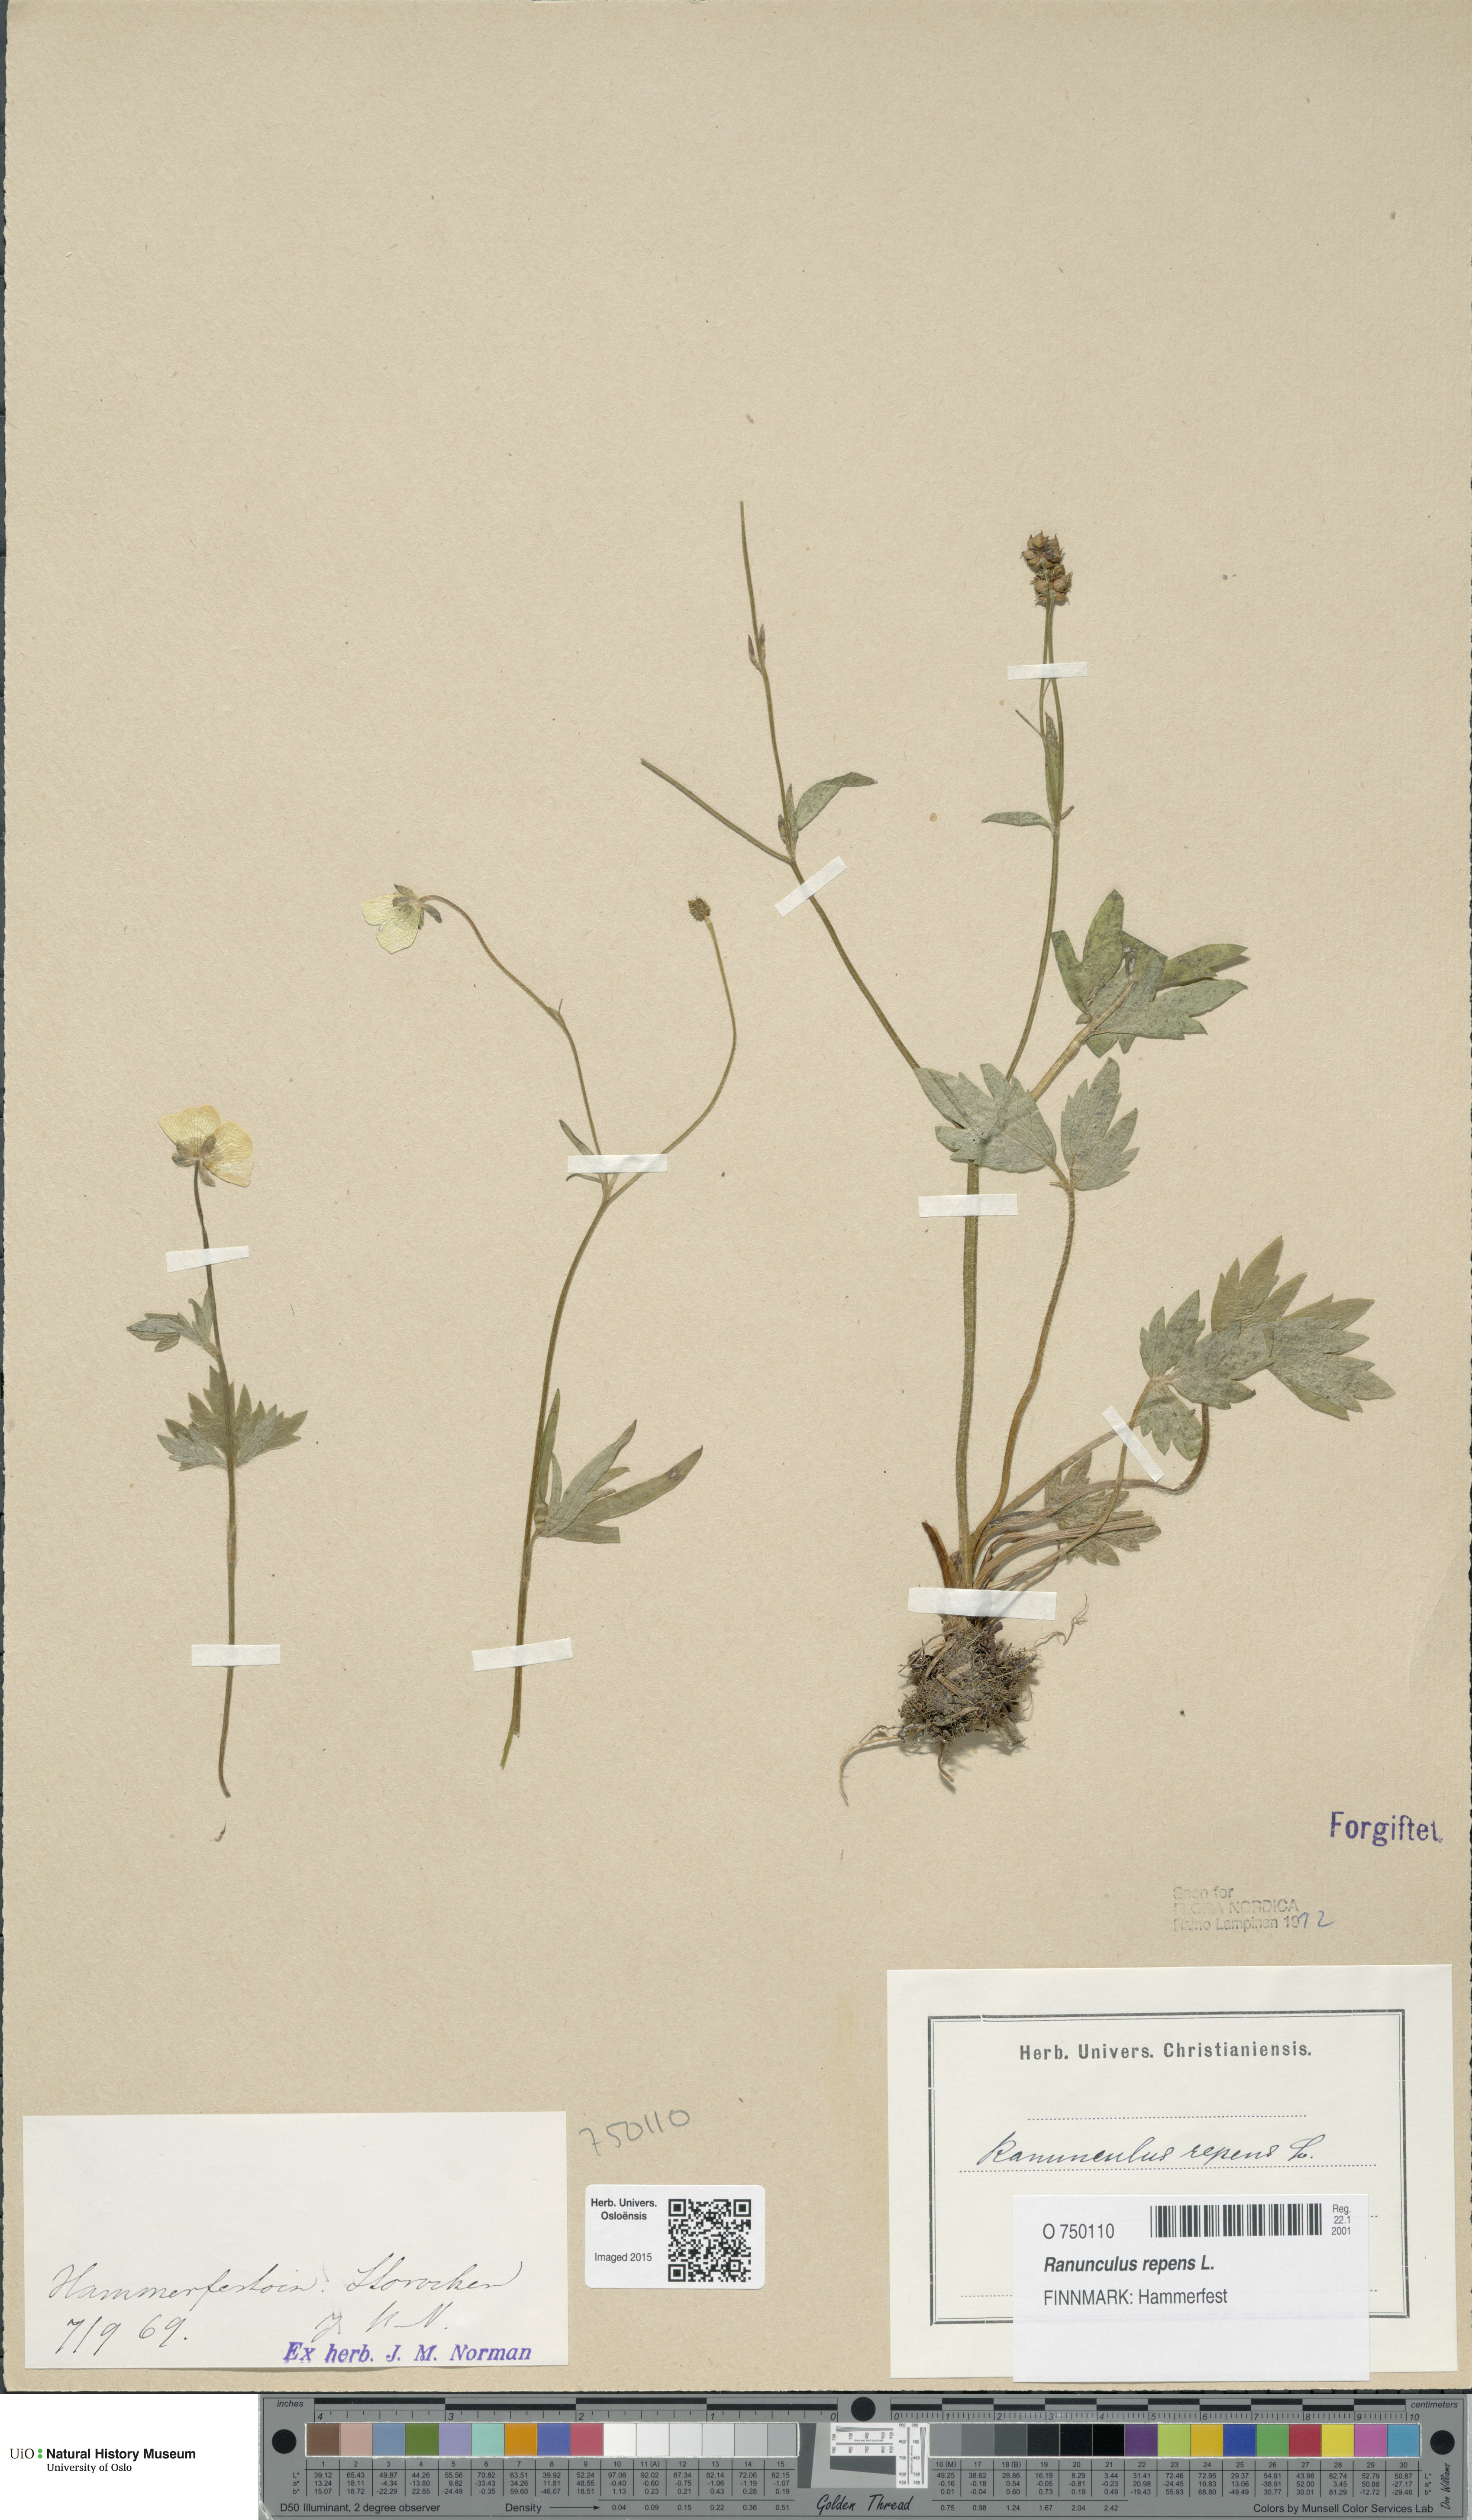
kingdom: Plantae
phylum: Tracheophyta
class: Magnoliopsida
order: Ranunculales
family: Ranunculaceae
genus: Ranunculus
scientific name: Ranunculus repens
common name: Creeping buttercup
